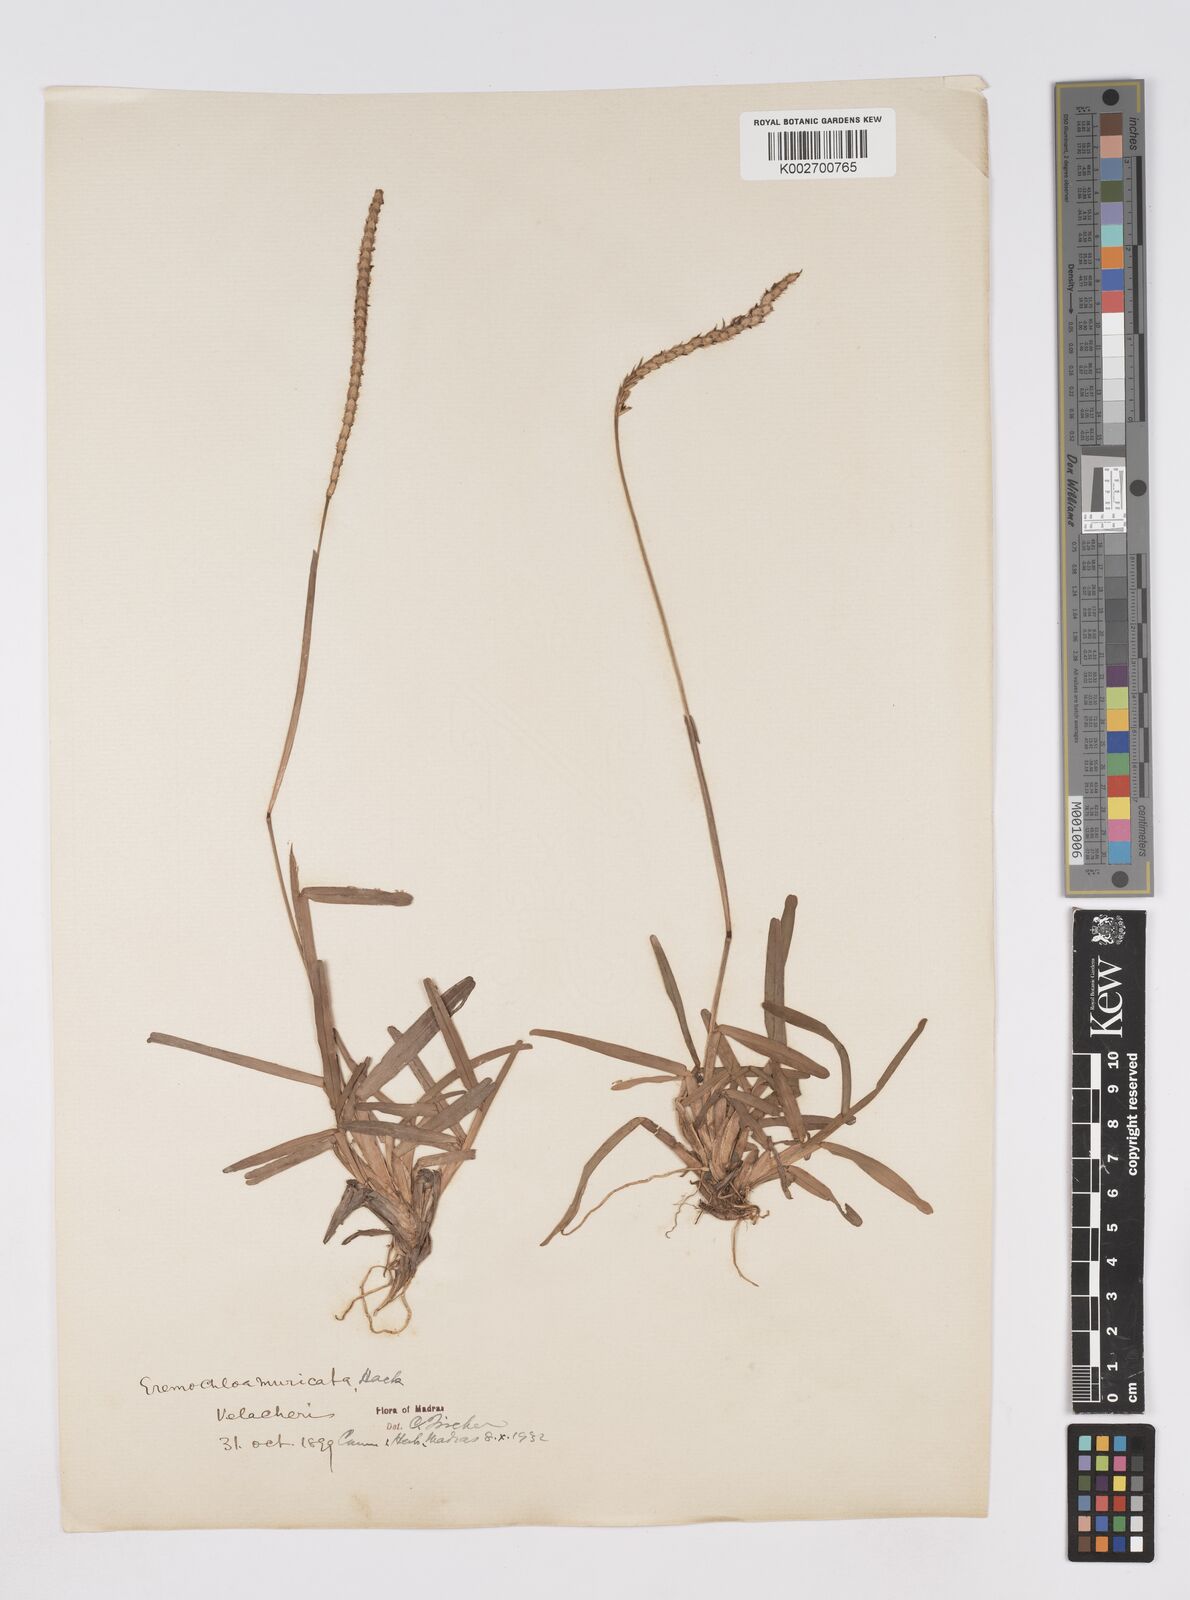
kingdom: Plantae
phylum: Tracheophyta
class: Liliopsida
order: Poales
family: Poaceae
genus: Eremochloa
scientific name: Eremochloa muricata
